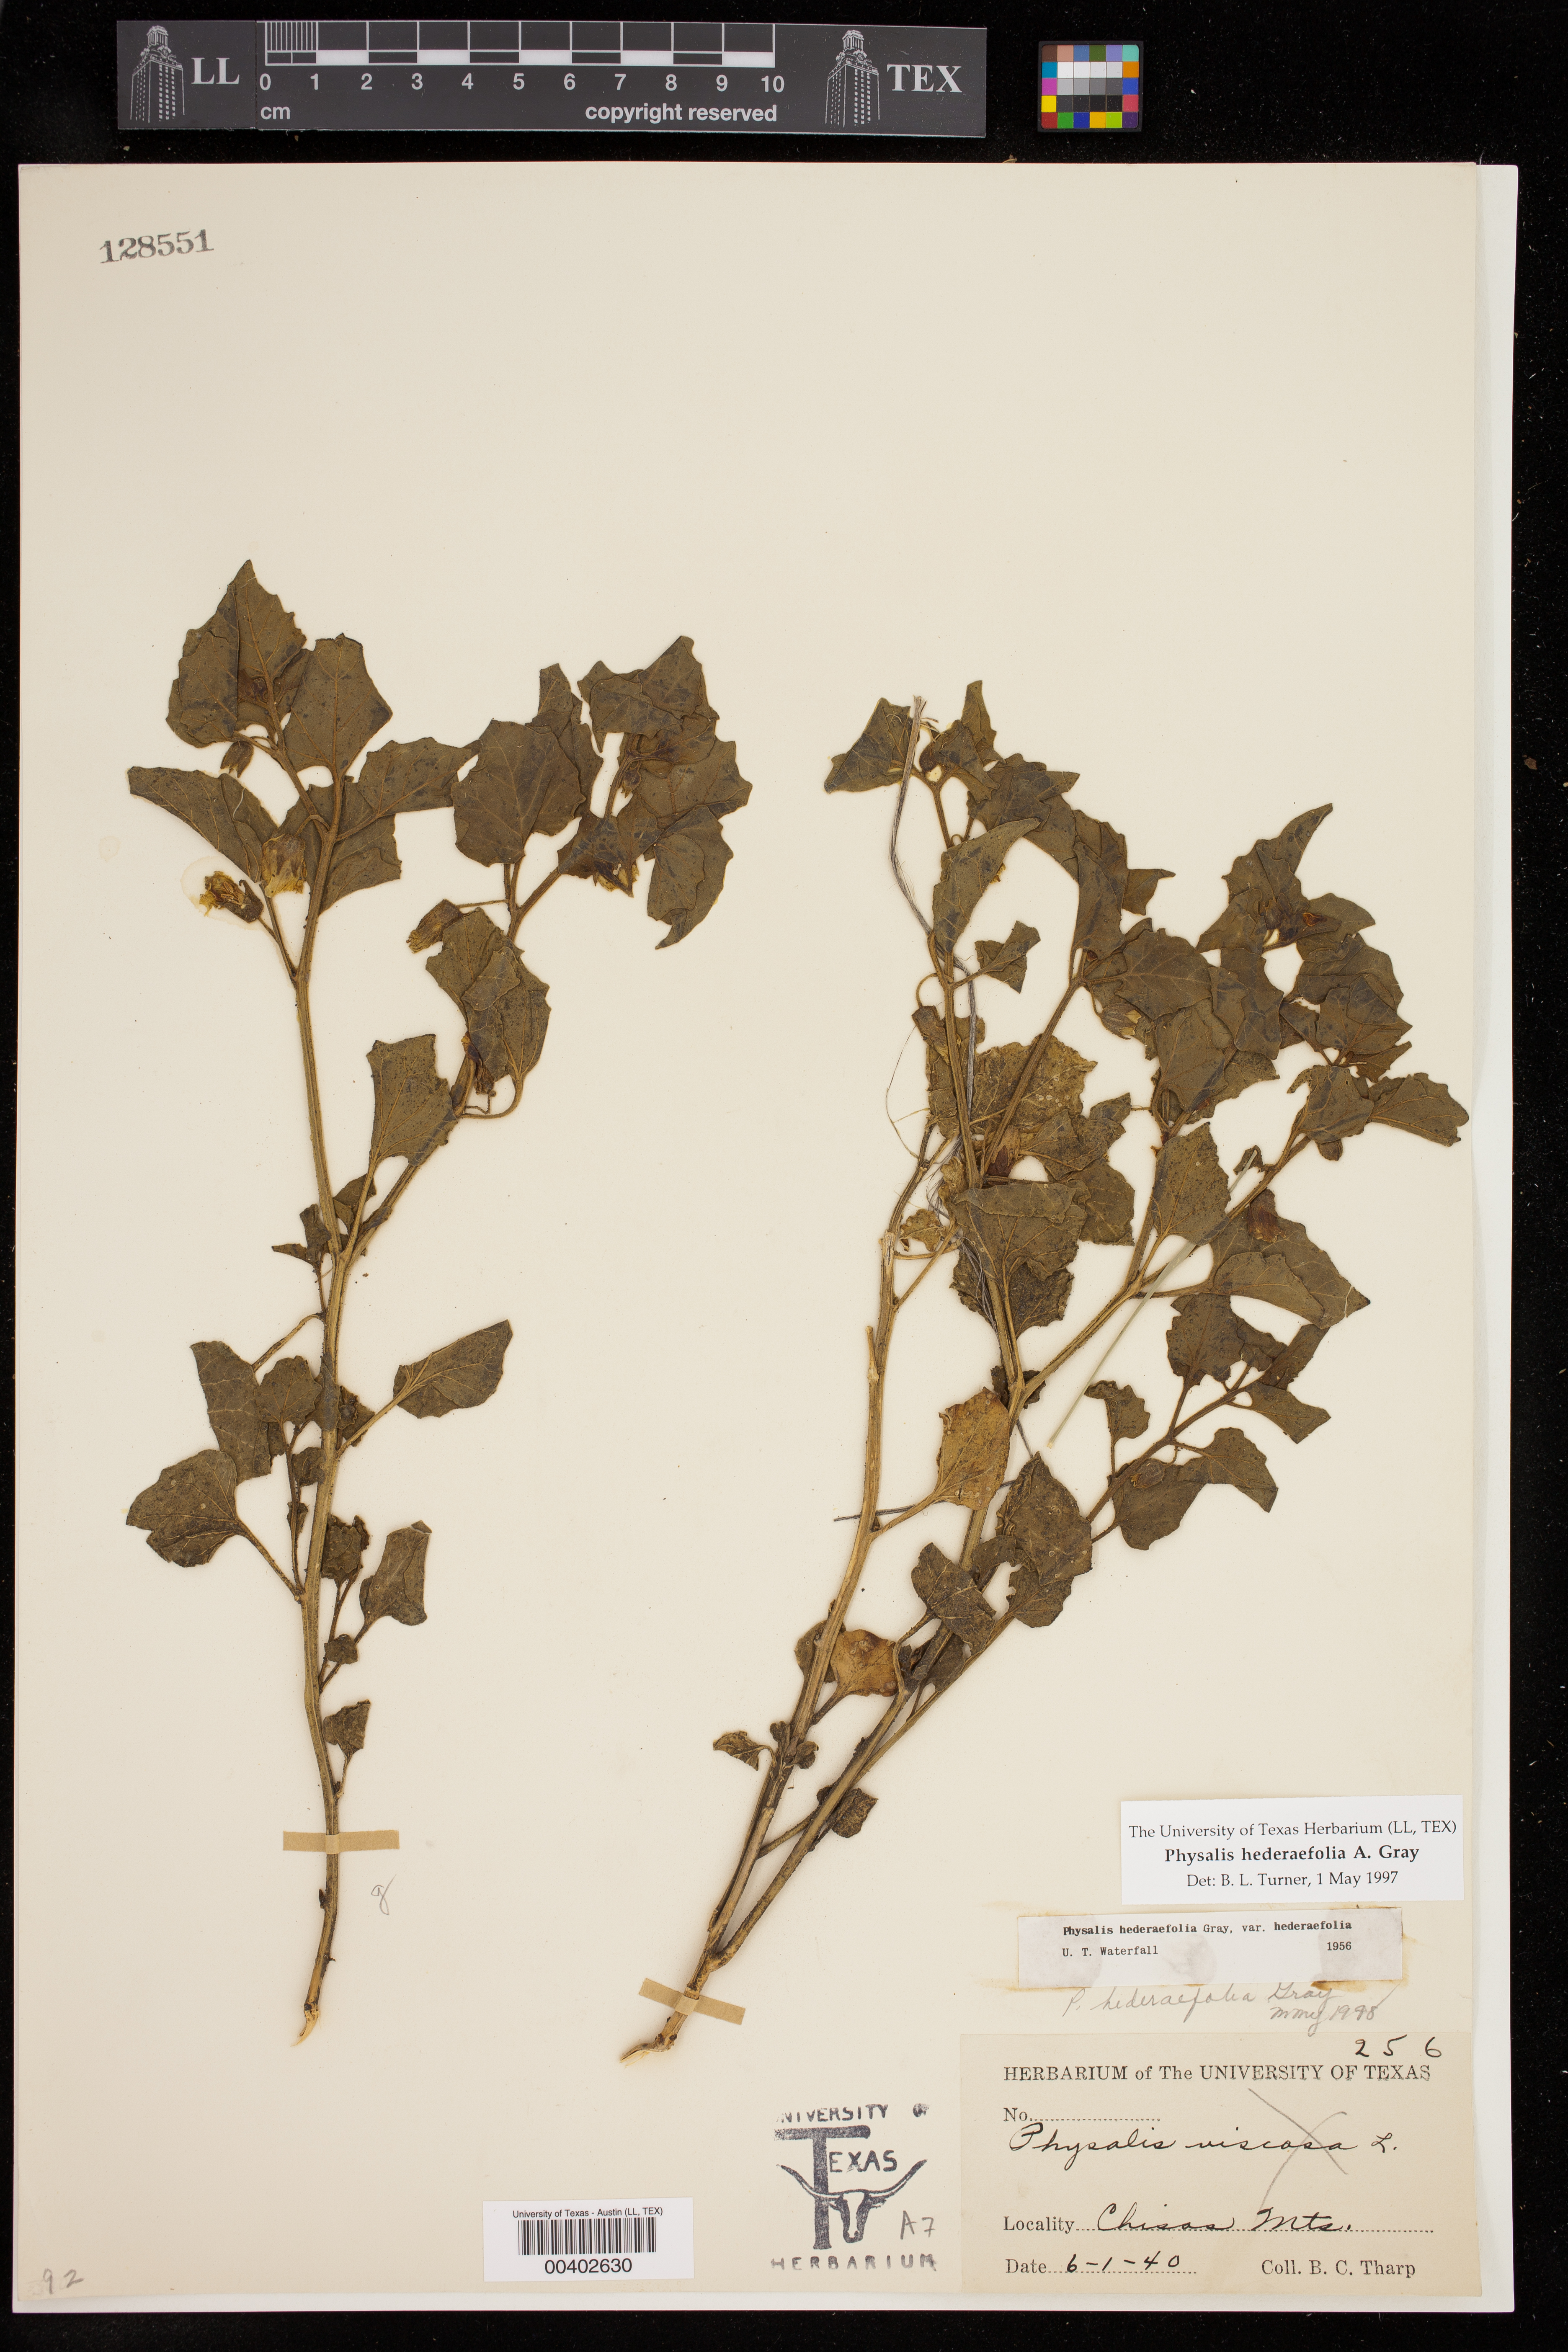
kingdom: Plantae
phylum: Tracheophyta
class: Magnoliopsida
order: Solanales
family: Solanaceae
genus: Physalis
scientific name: Physalis hederifolia
